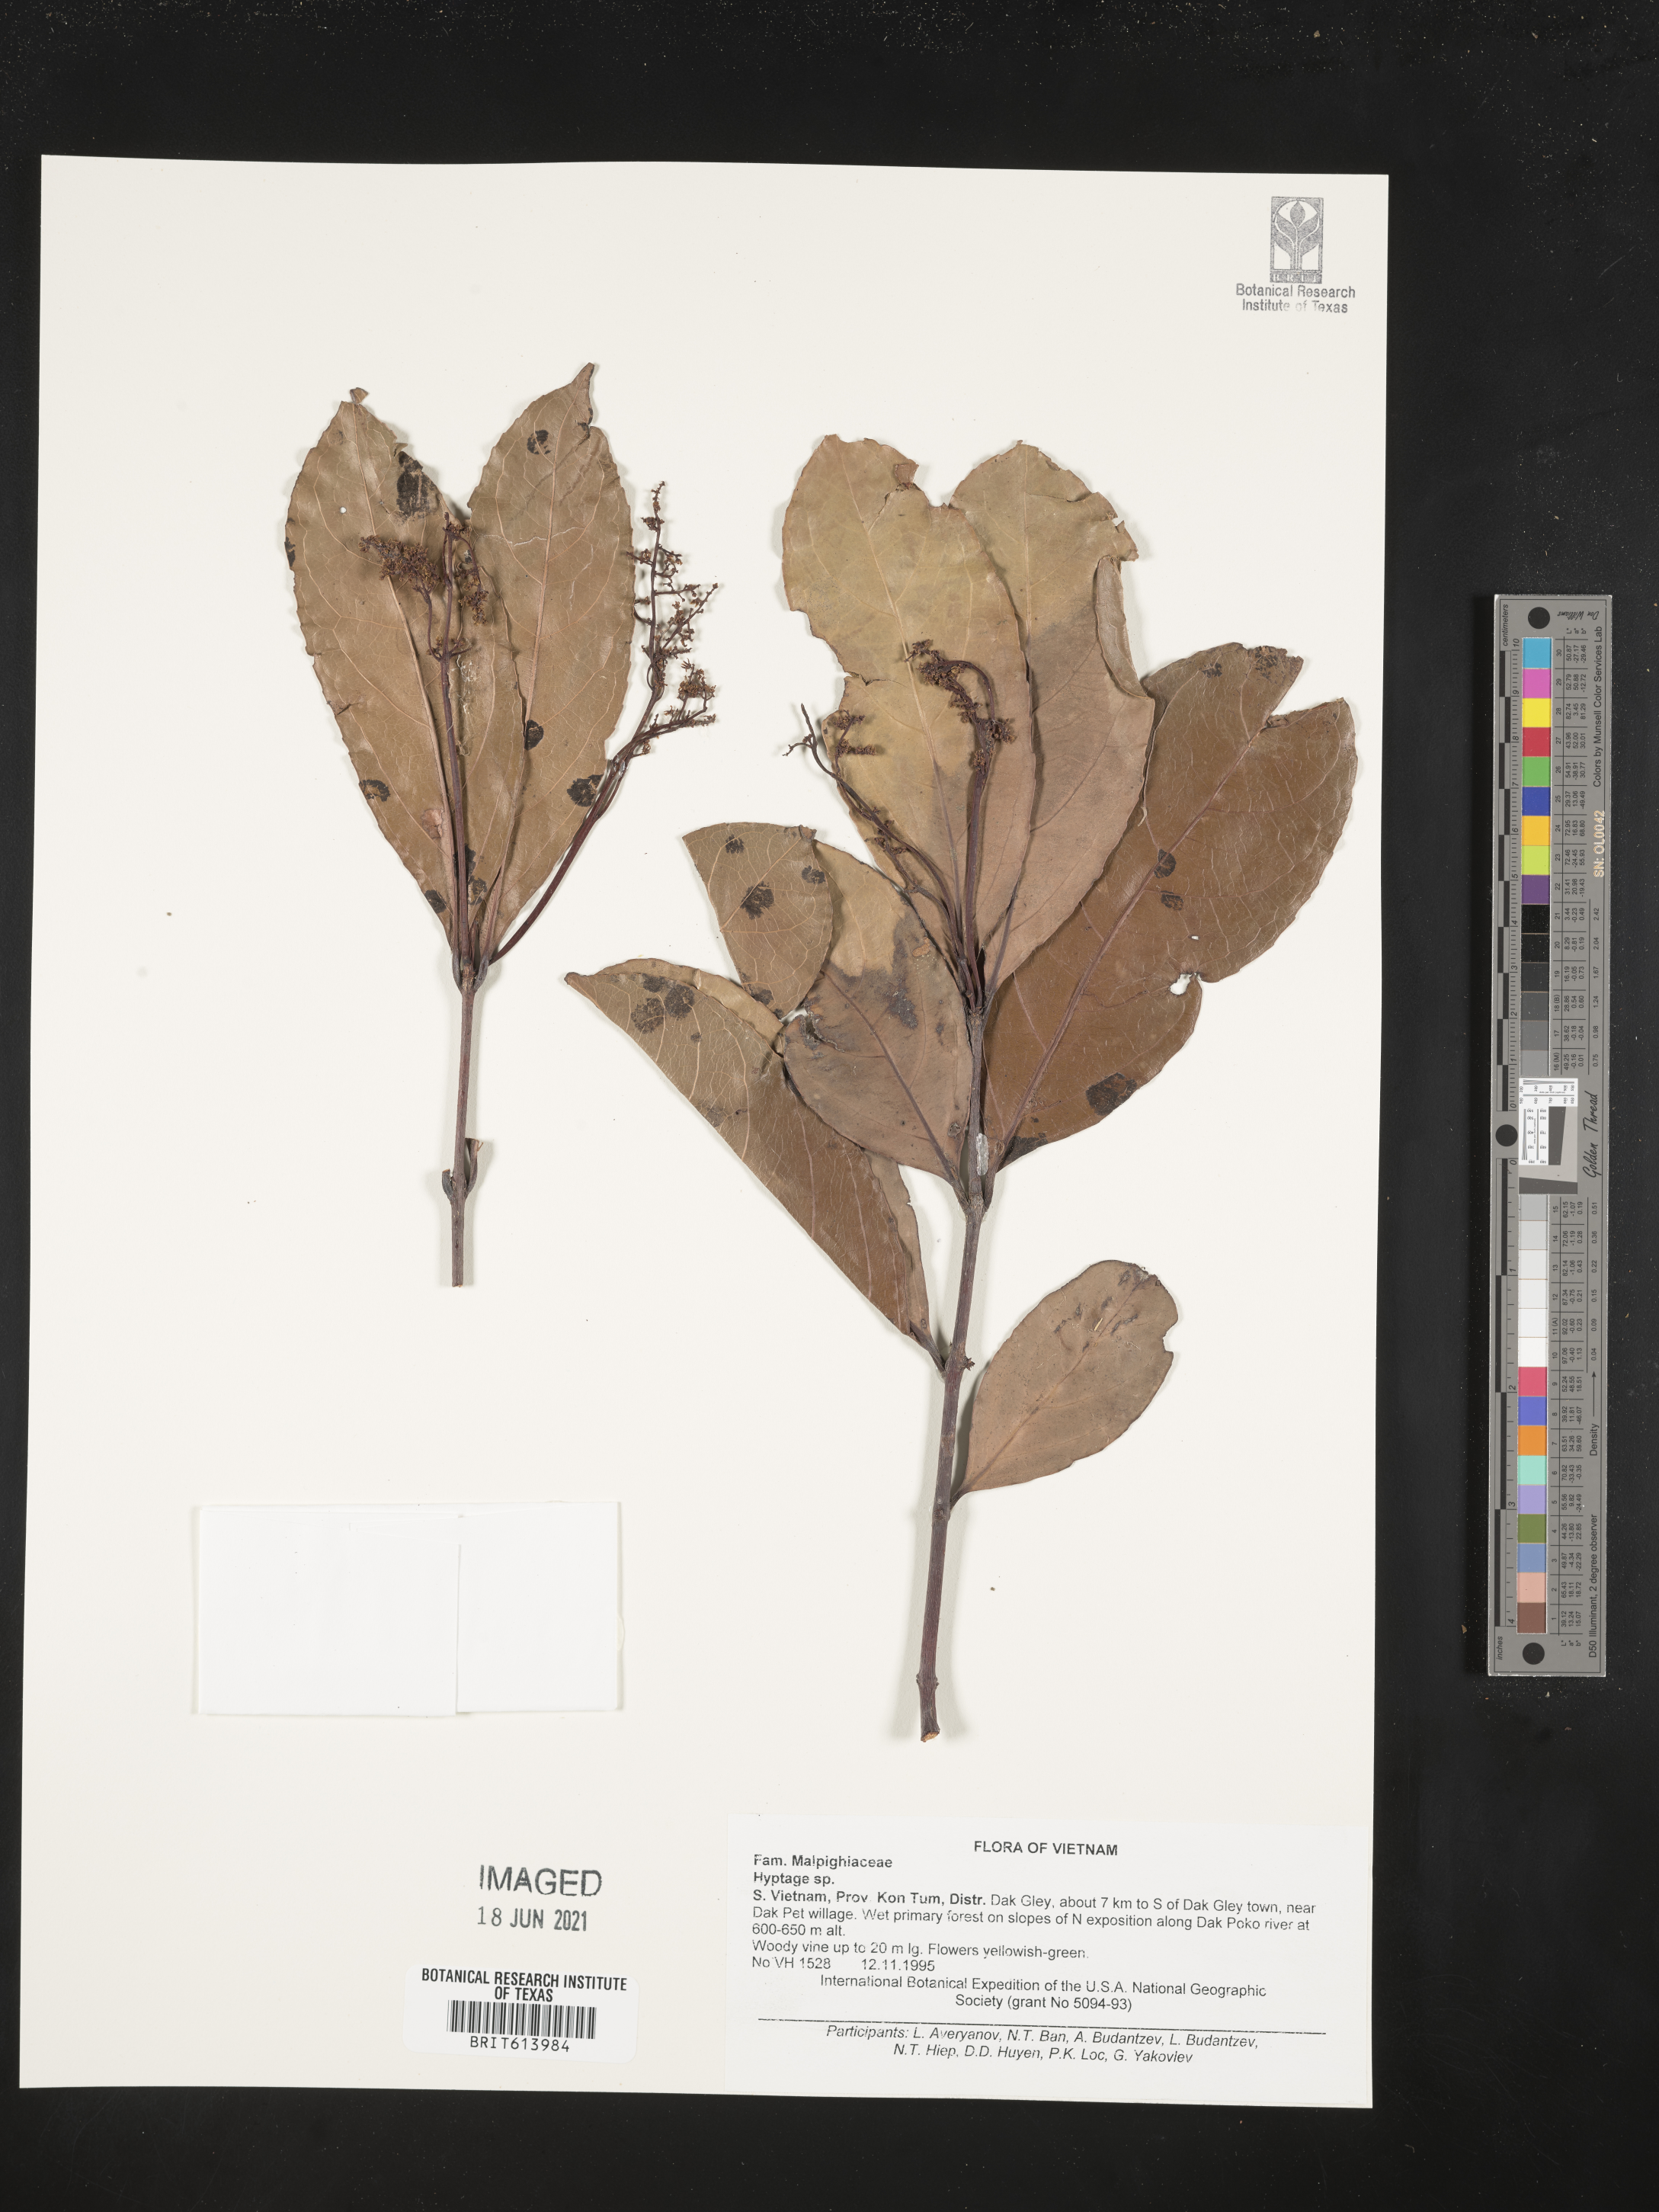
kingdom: Plantae
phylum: Tracheophyta
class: Magnoliopsida
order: Malpighiales
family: Malpighiaceae
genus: Hiptage
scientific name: Hiptage
